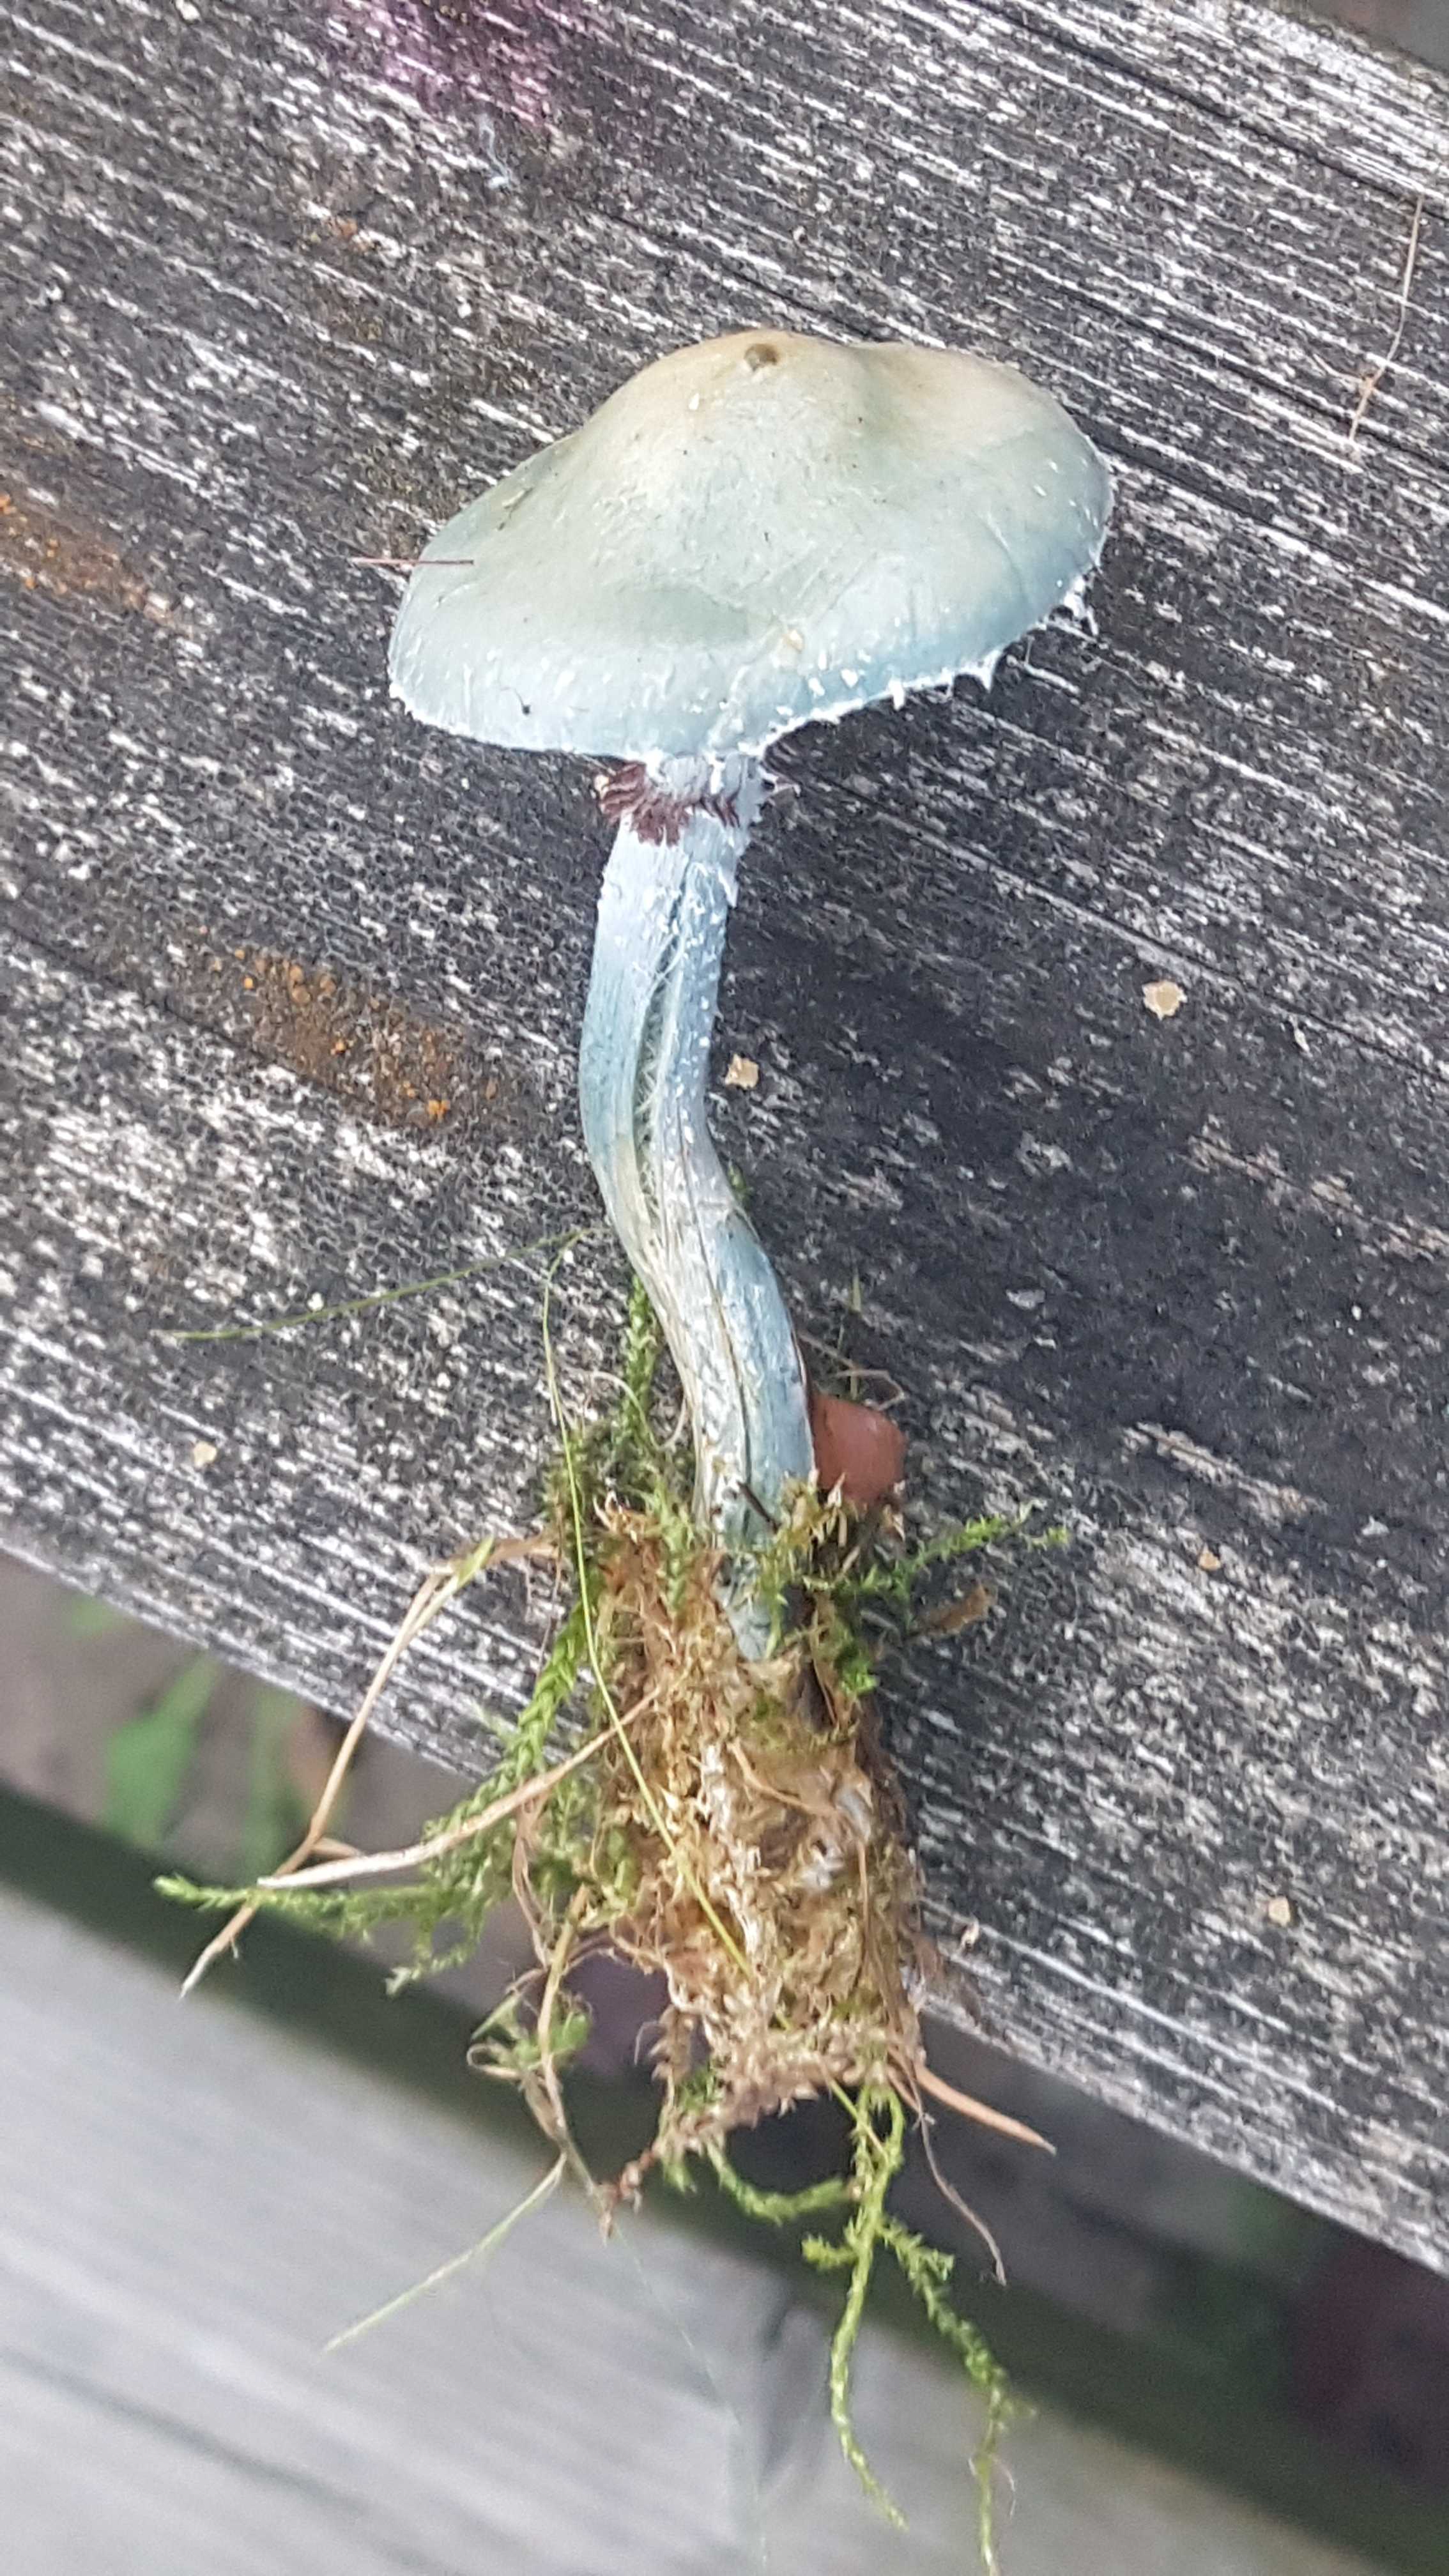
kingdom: Fungi
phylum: Basidiomycota
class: Agaricomycetes
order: Agaricales
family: Strophariaceae
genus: Stropharia
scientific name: Stropharia cyanea
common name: blågrøn bredblad
